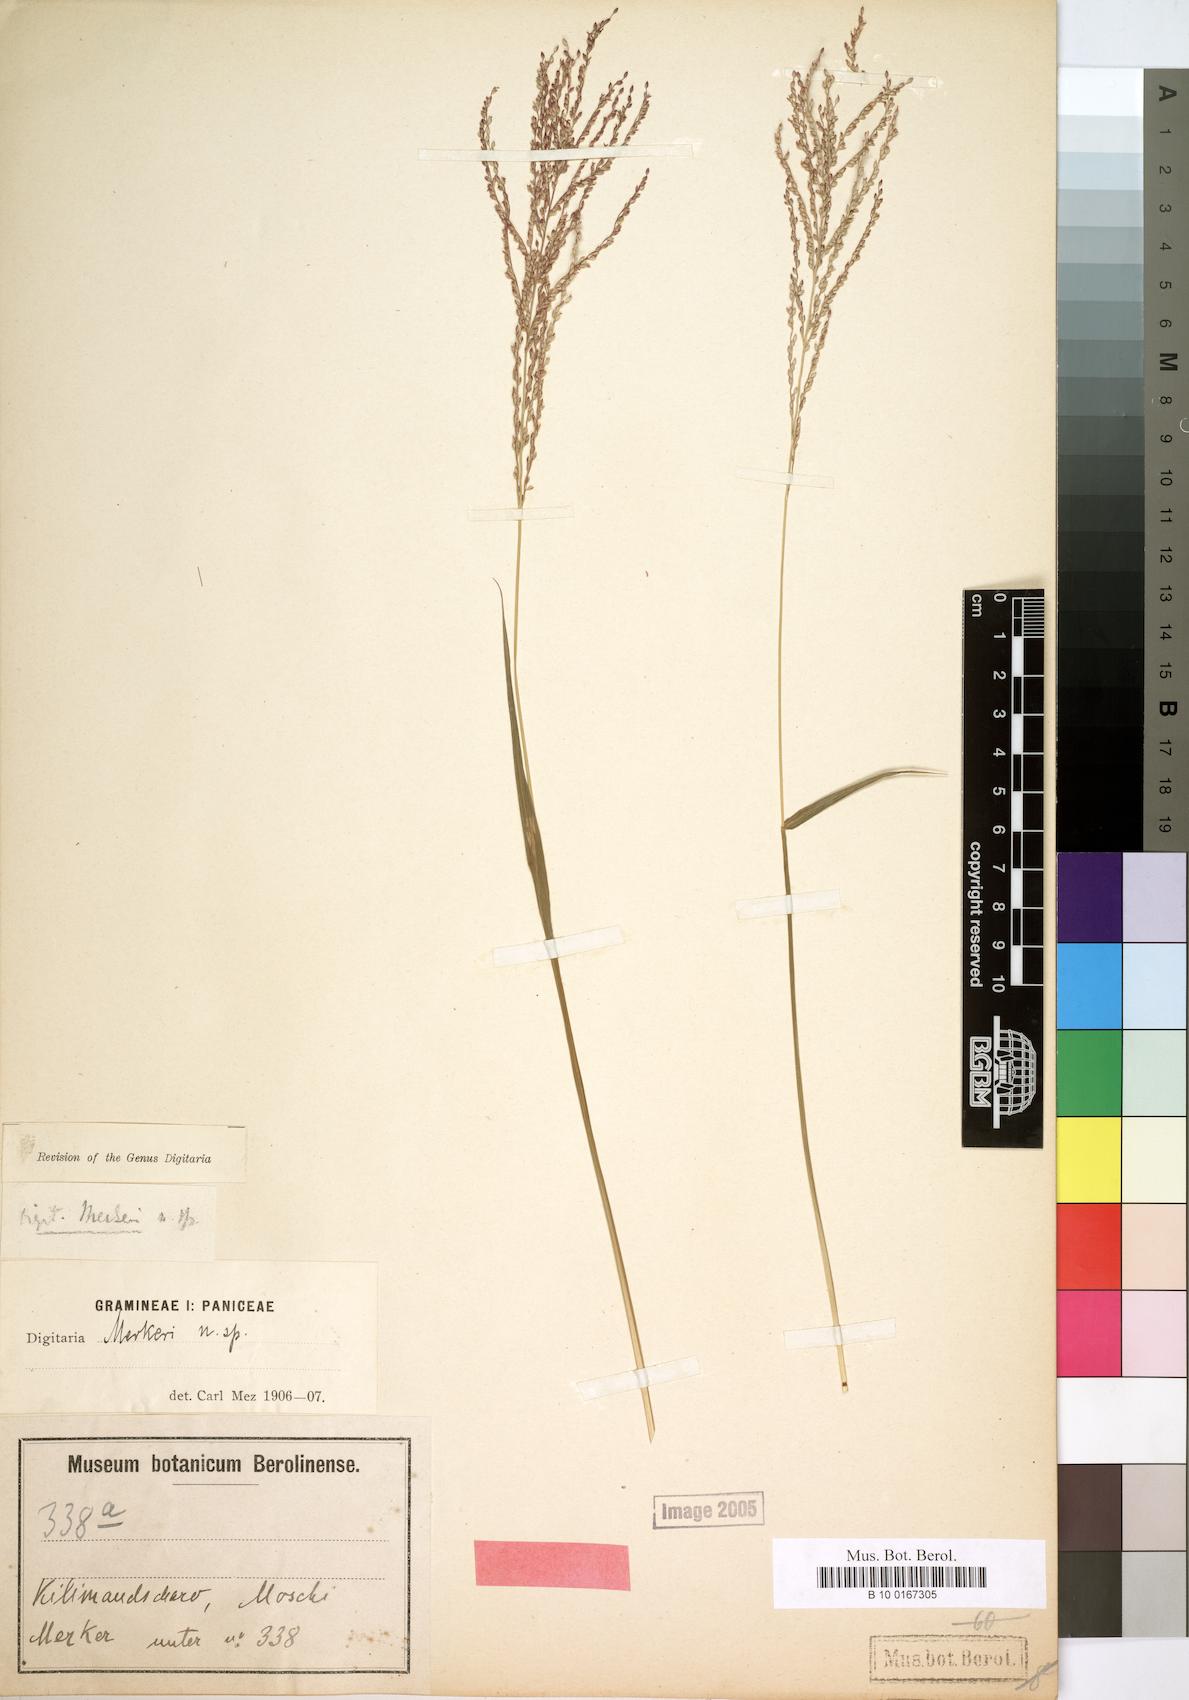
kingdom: Plantae
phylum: Tracheophyta
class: Liliopsida
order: Poales
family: Poaceae
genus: Digitaria
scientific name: Digitaria abyssinica
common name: African couchgrass
